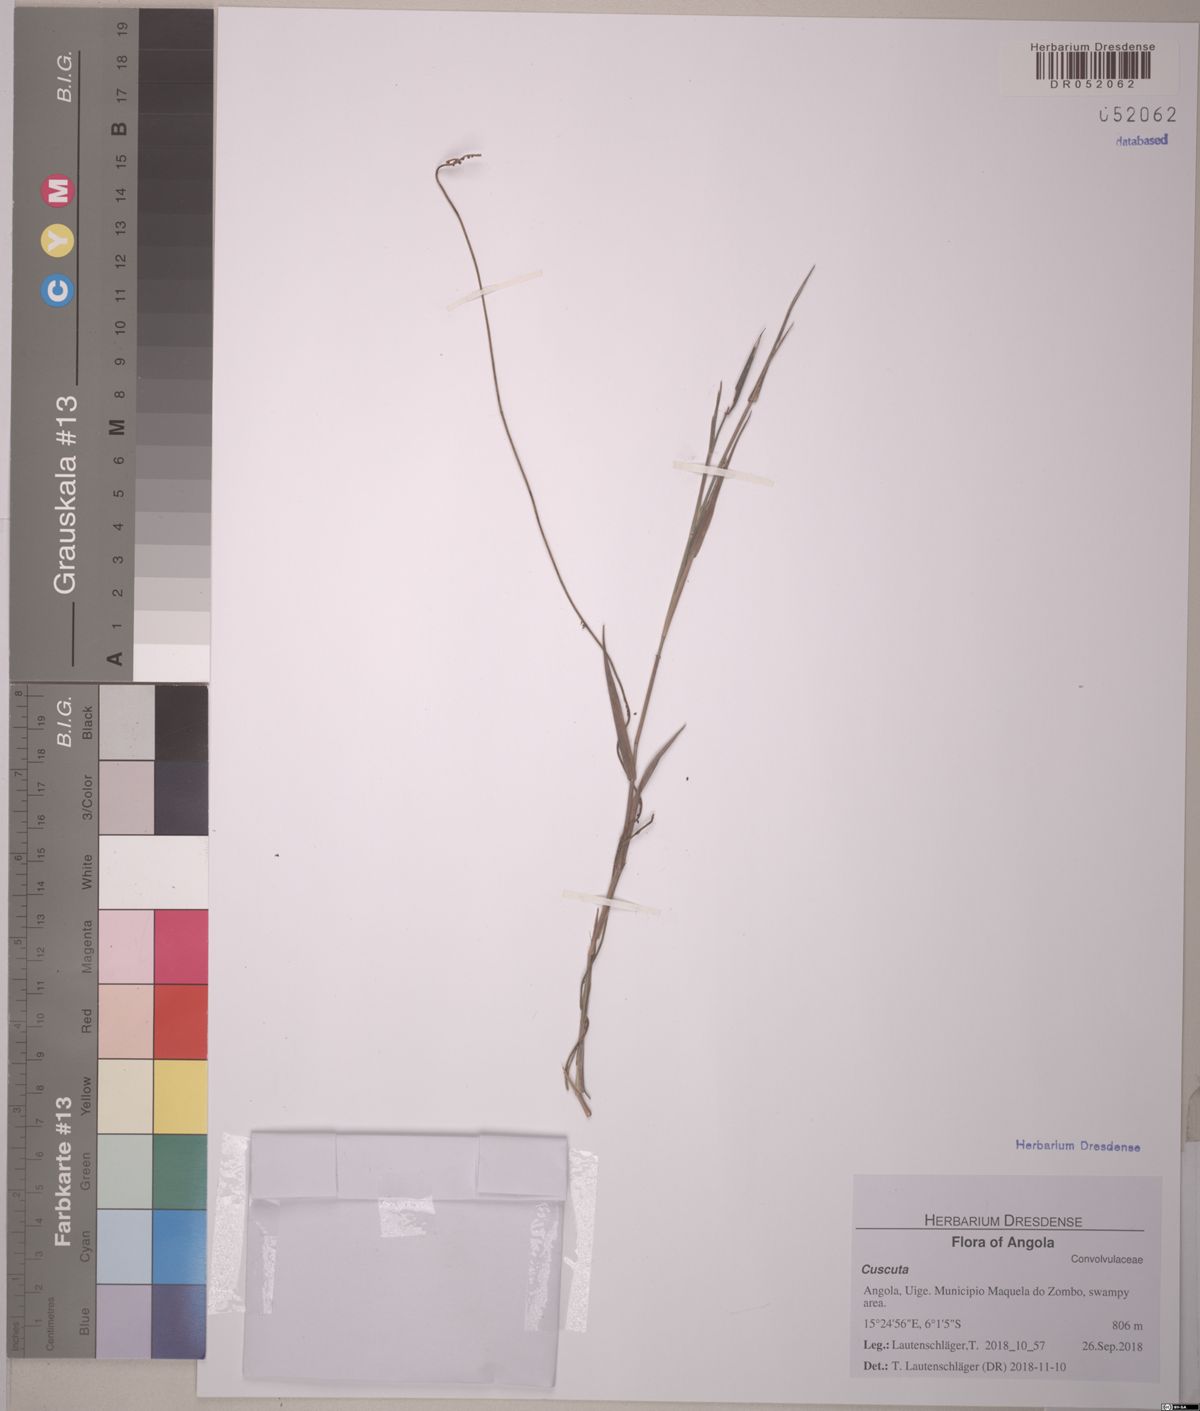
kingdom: Plantae
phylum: Tracheophyta
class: Magnoliopsida
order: Laurales
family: Lauraceae
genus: Cassytha
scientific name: Cassytha filiformis
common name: Dodder-laurel
